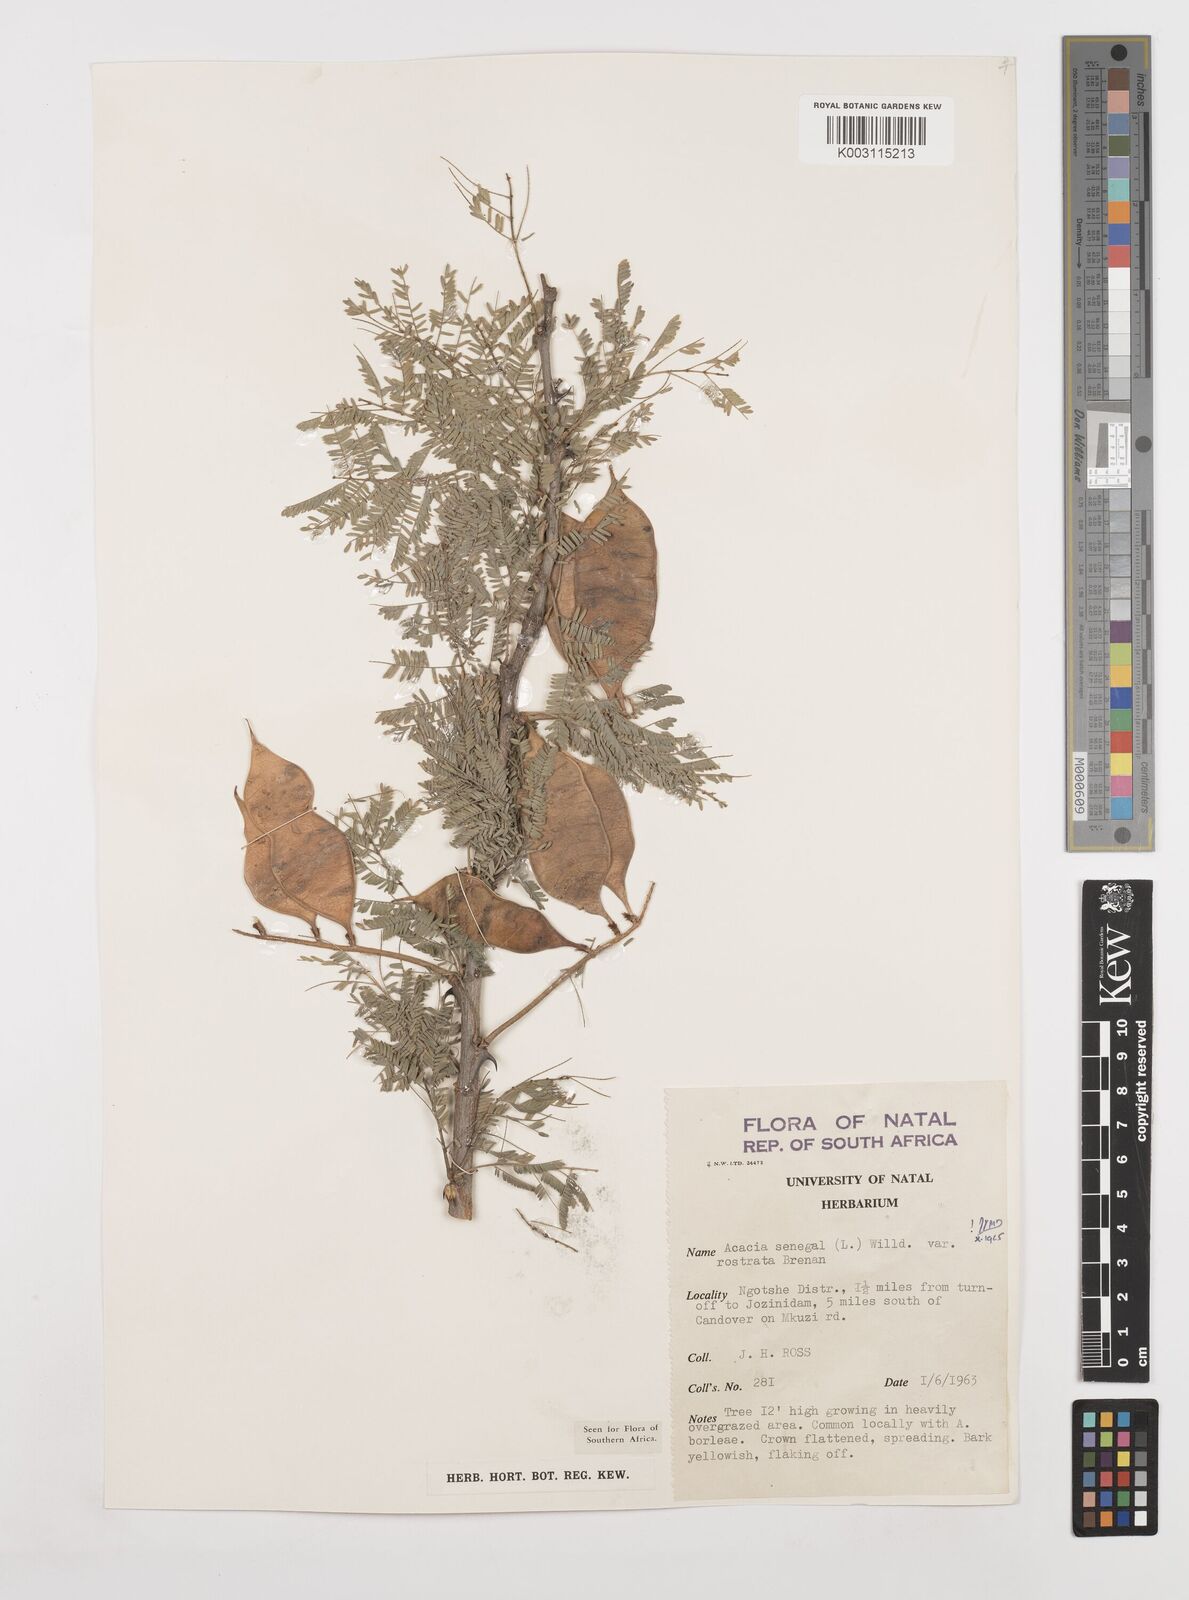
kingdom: Plantae
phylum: Tracheophyta
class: Magnoliopsida
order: Fabales
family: Fabaceae
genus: Senegalia
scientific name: Senegalia senegal
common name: Senegal-gum
